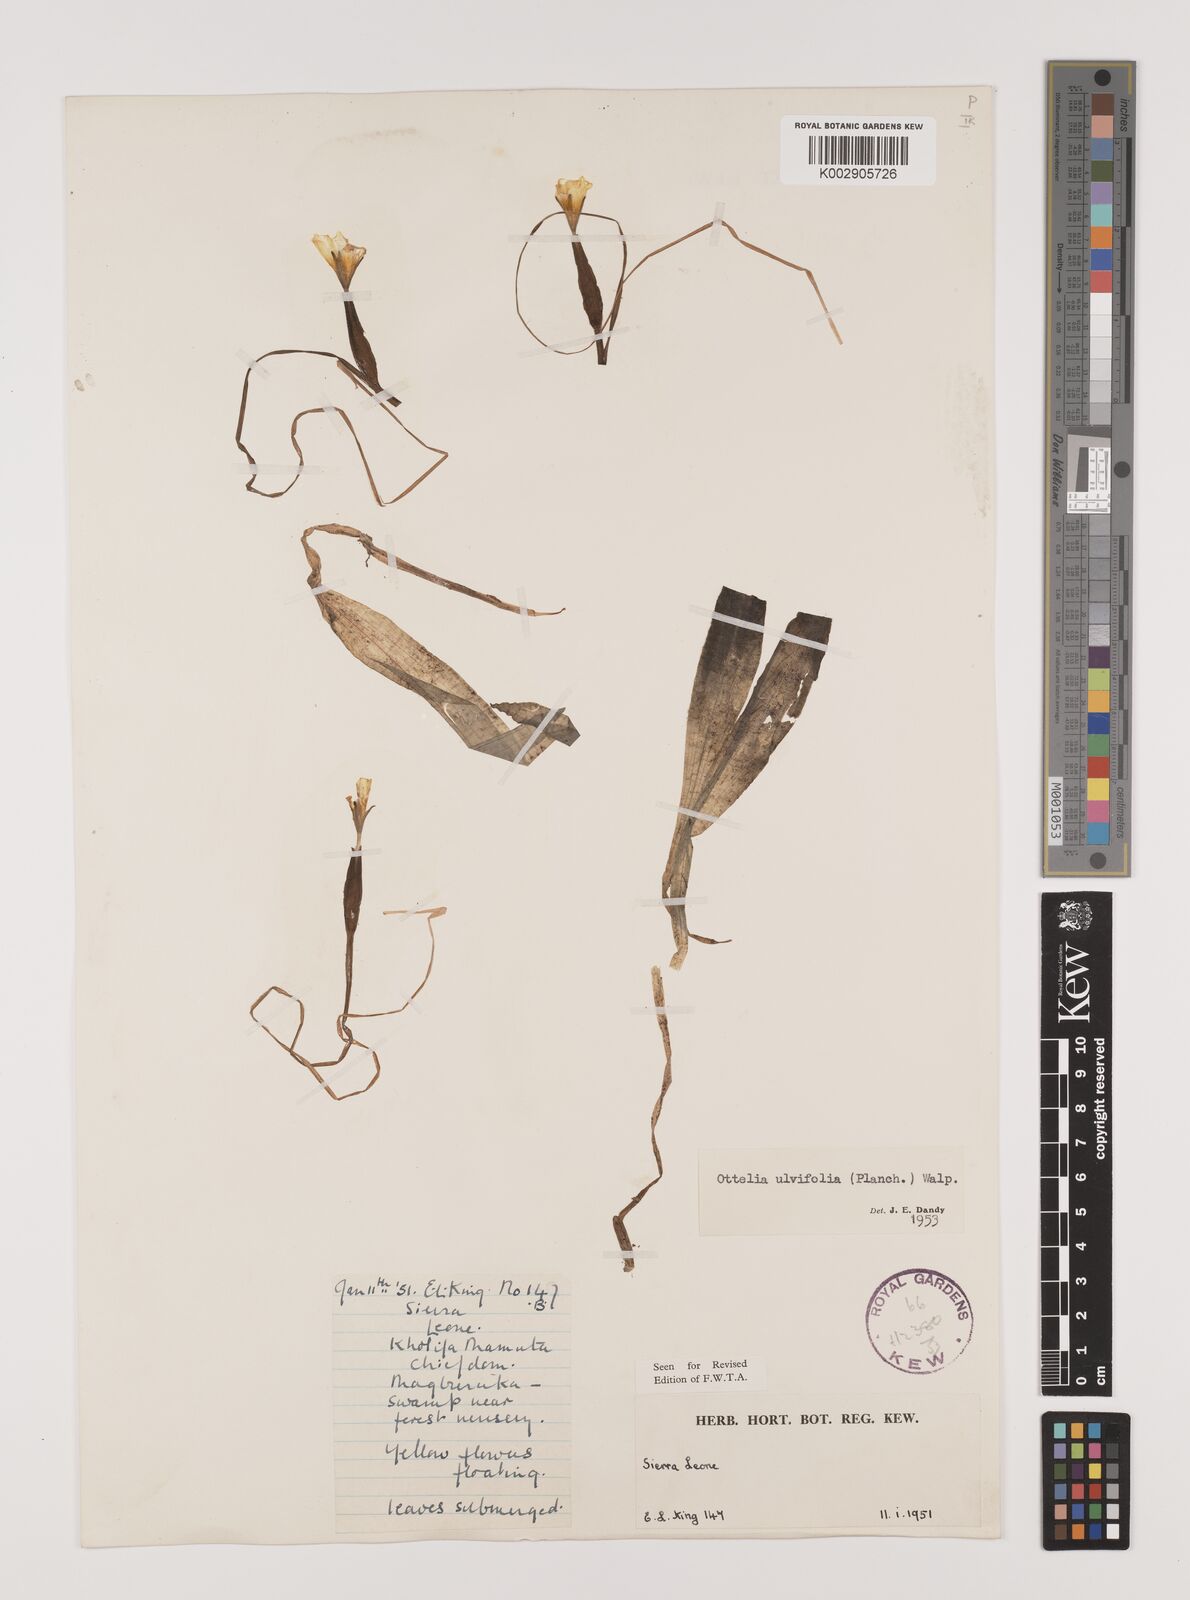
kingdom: Plantae
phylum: Tracheophyta
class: Liliopsida
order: Alismatales
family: Hydrocharitaceae
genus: Ottelia
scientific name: Ottelia ulvifolia
